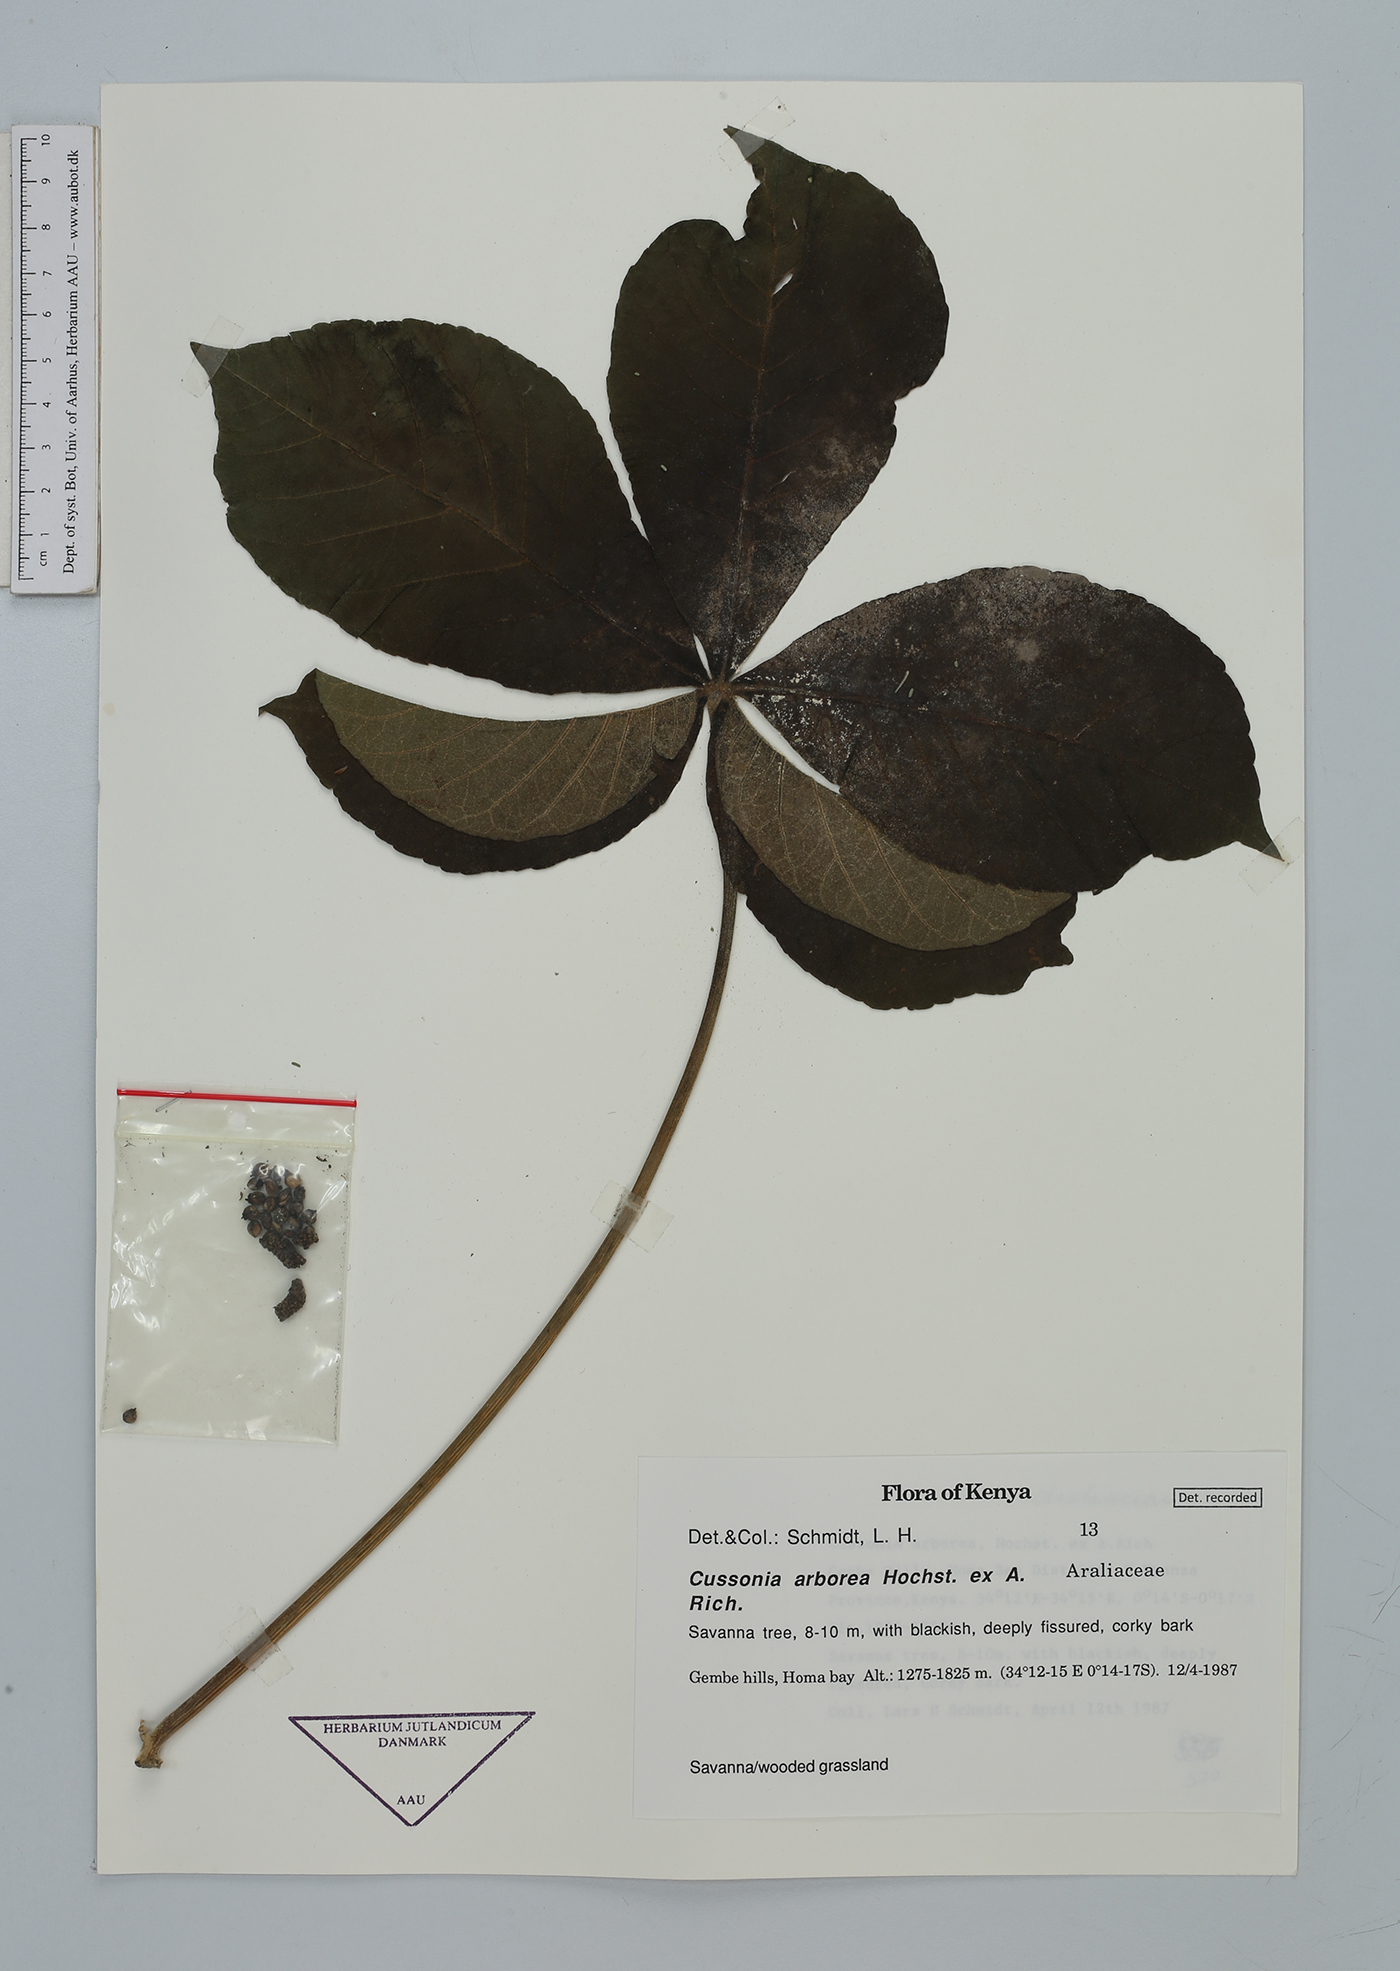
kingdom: Plantae
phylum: Tracheophyta
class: Magnoliopsida
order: Apiales
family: Araliaceae
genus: Cussonia
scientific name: Cussonia arborea
